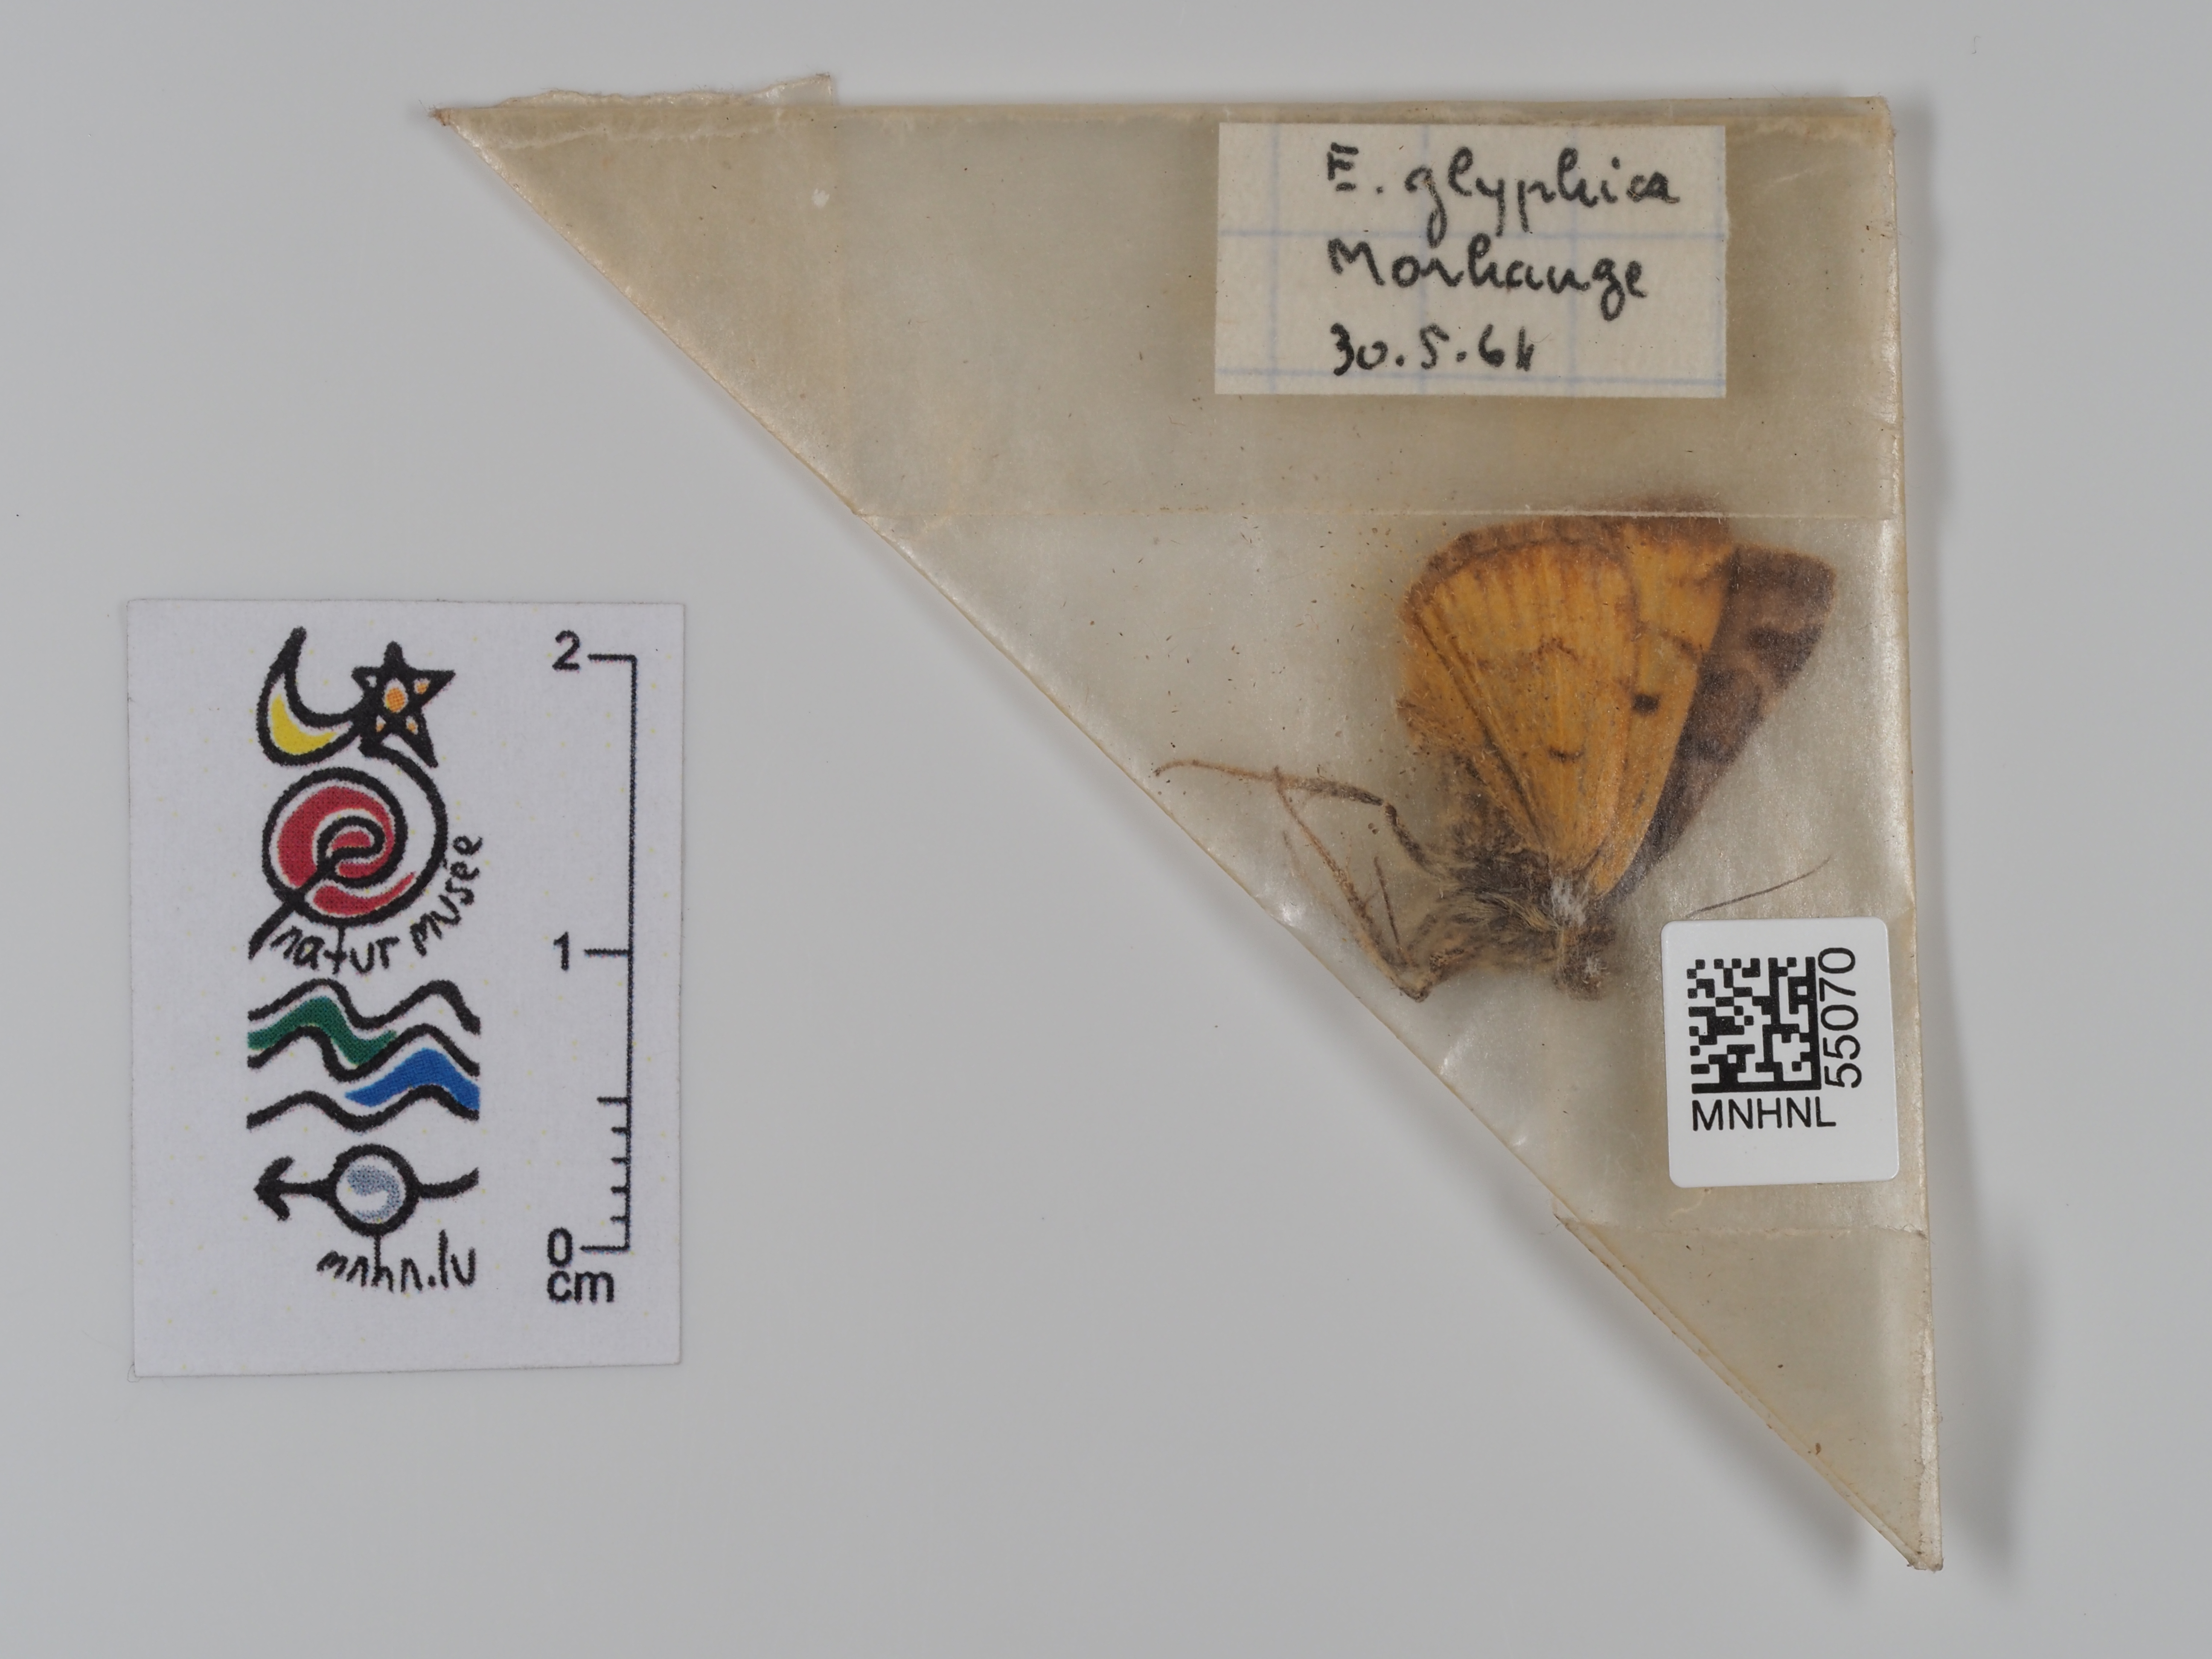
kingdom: Animalia
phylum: Arthropoda
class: Insecta
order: Lepidoptera
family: Erebidae
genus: Euclidia
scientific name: Euclidia glyphica
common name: Burnet companion
